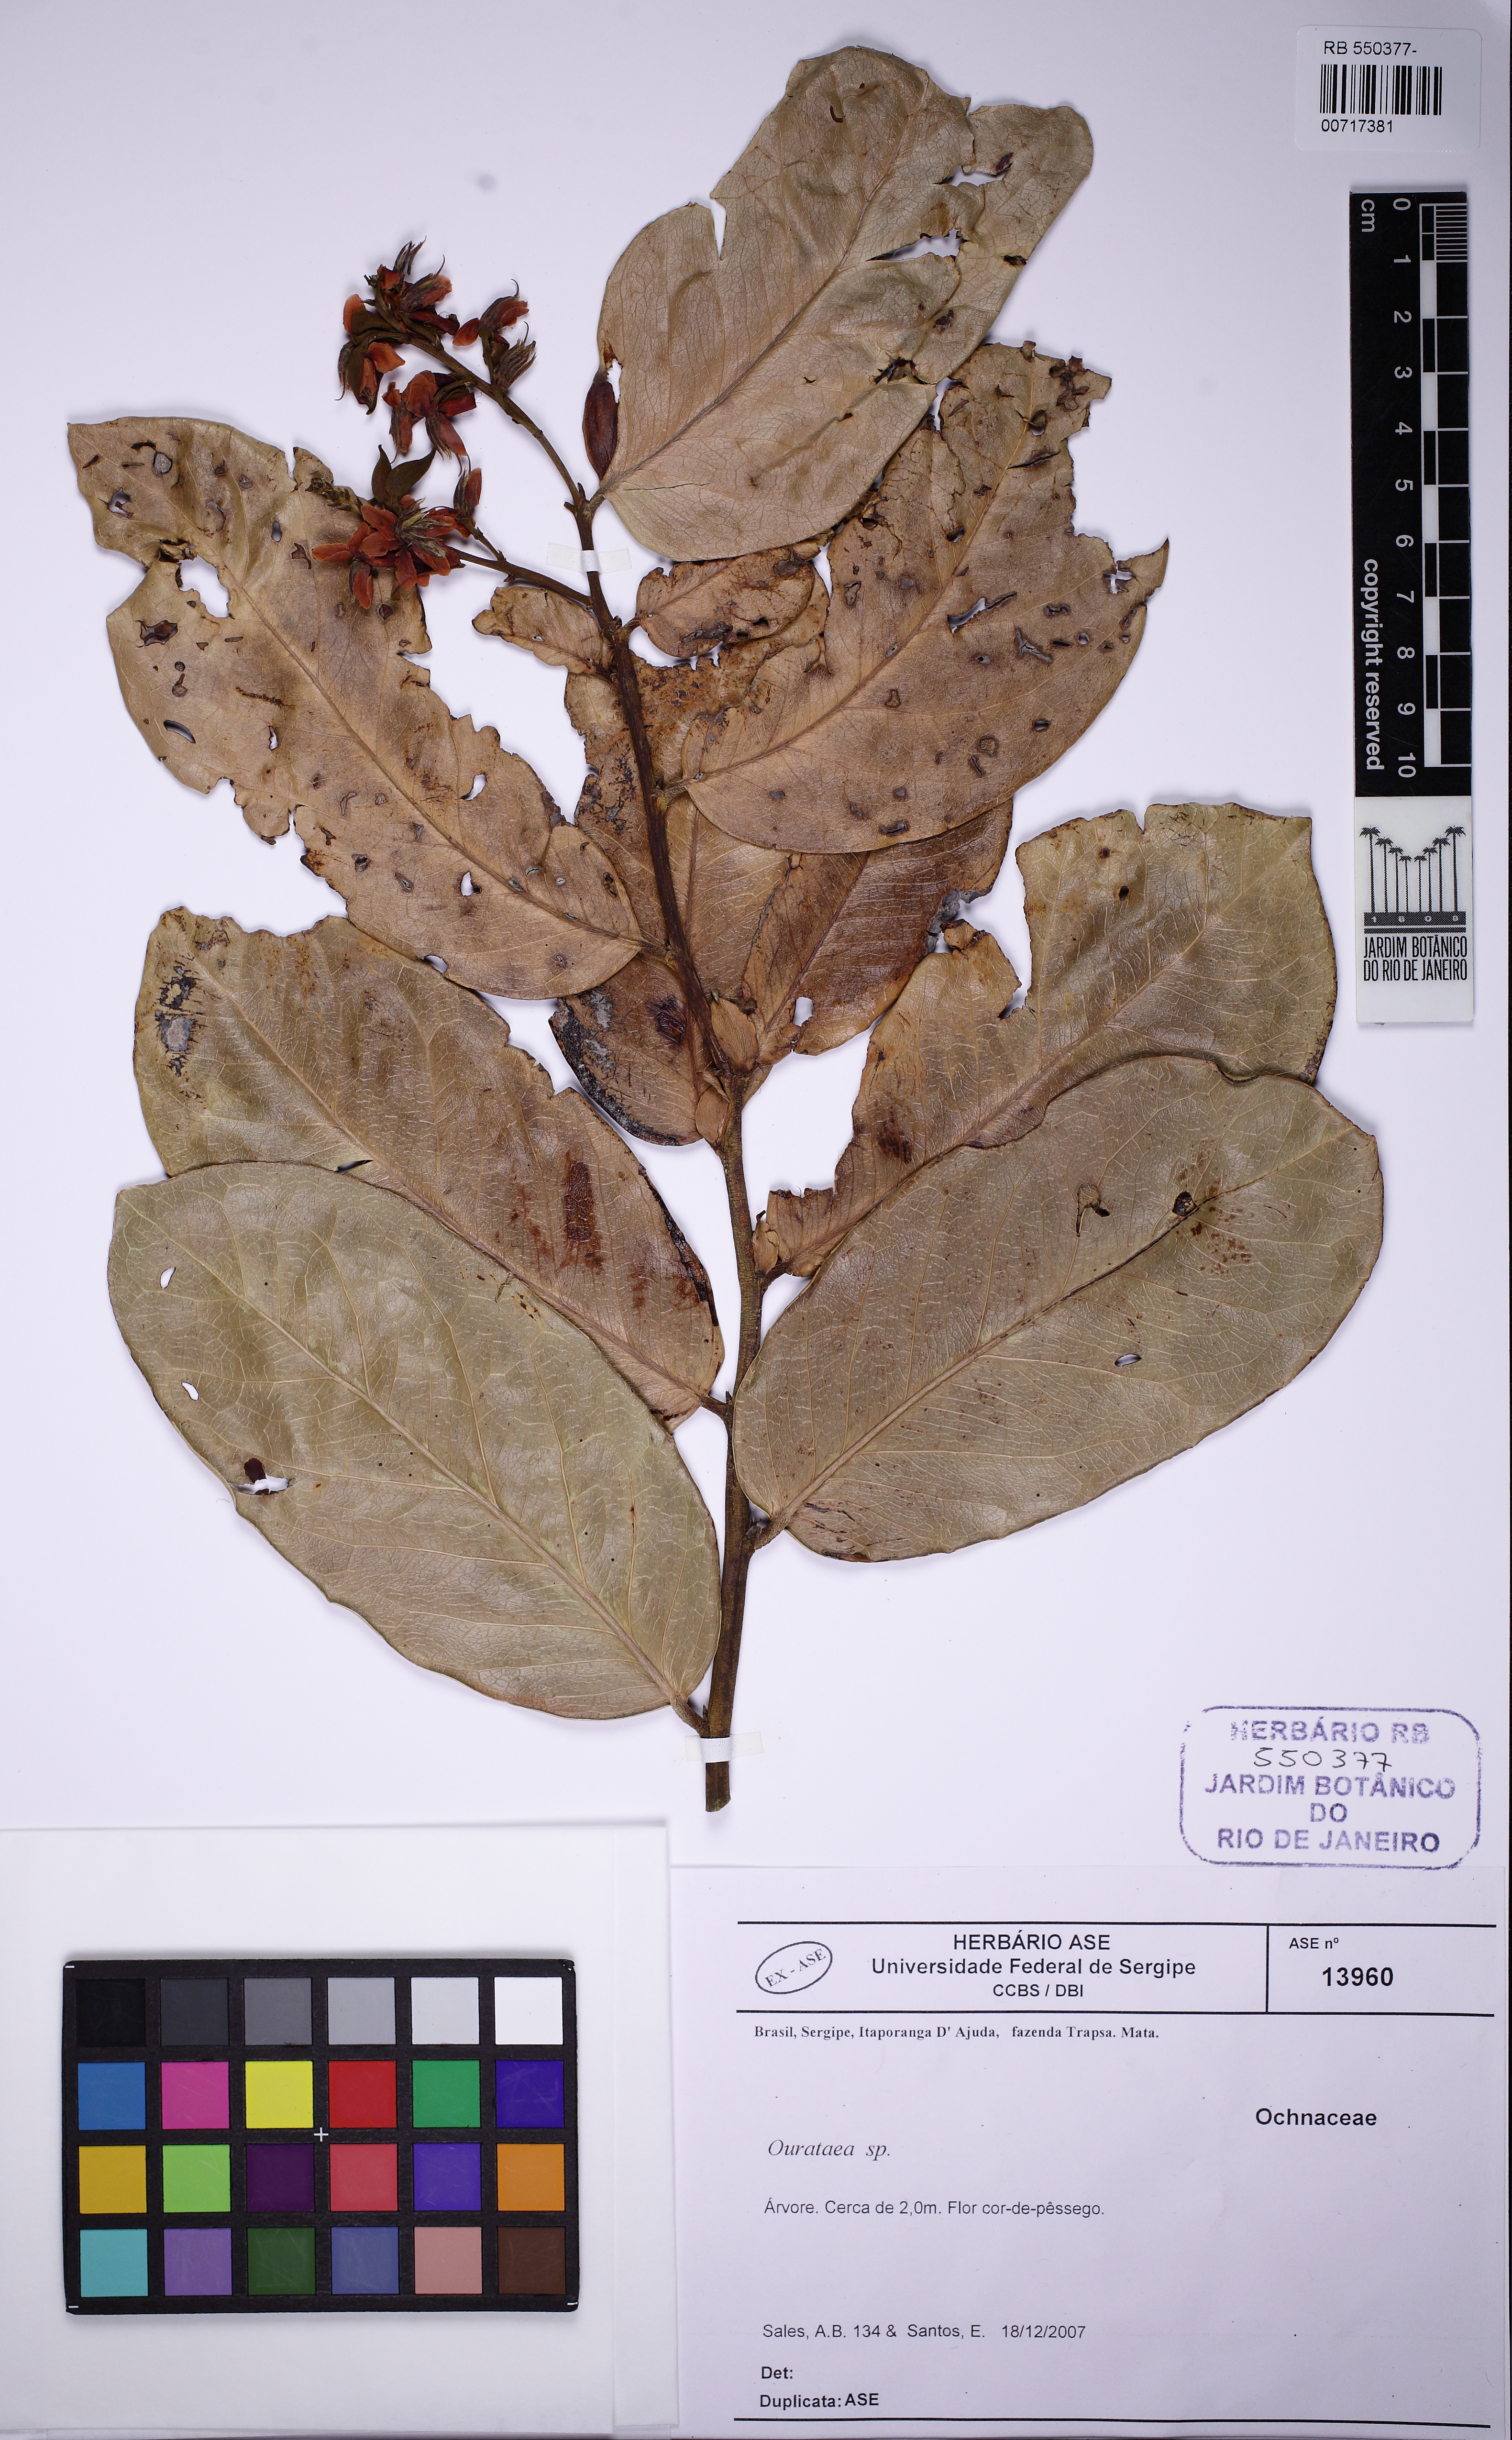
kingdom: Plantae
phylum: Tracheophyta
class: Magnoliopsida
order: Fabales
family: Fabaceae
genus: Zollernia
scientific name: Zollernia
